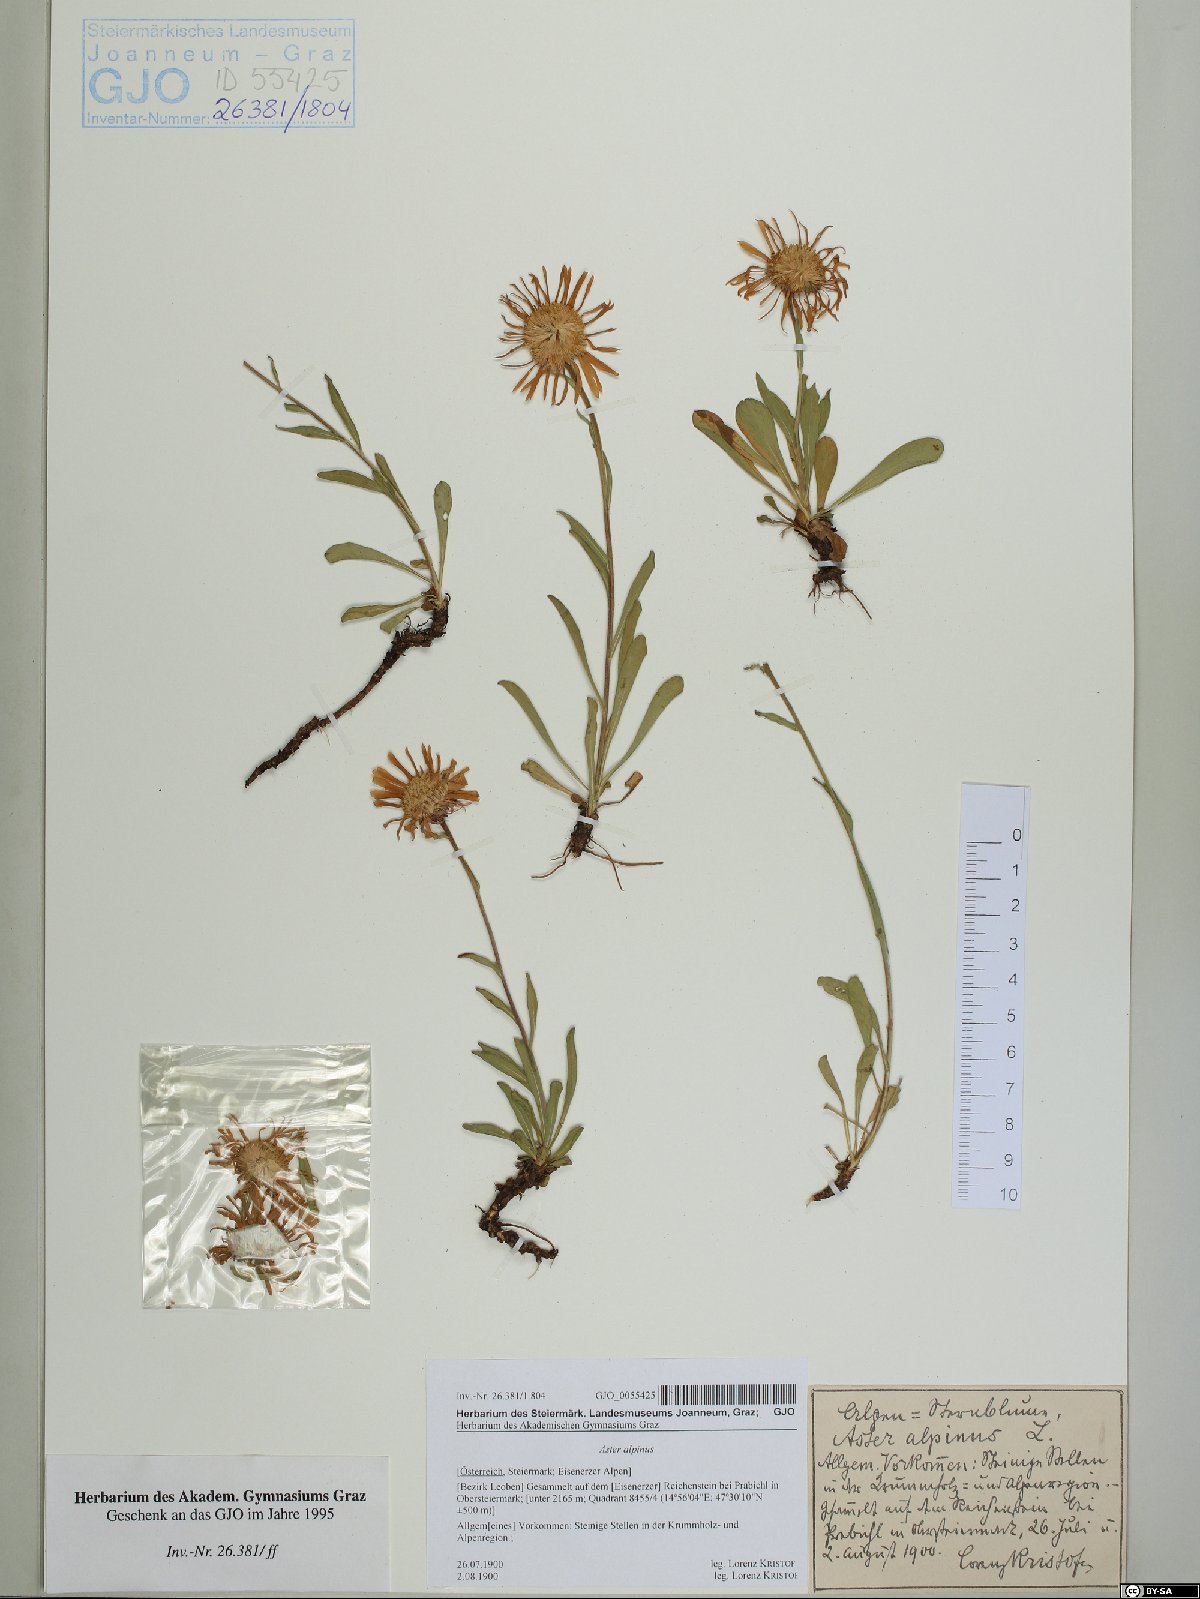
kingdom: Plantae
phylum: Tracheophyta
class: Magnoliopsida
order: Asterales
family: Asteraceae
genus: Aster
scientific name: Aster alpinus
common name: Alpine aster
